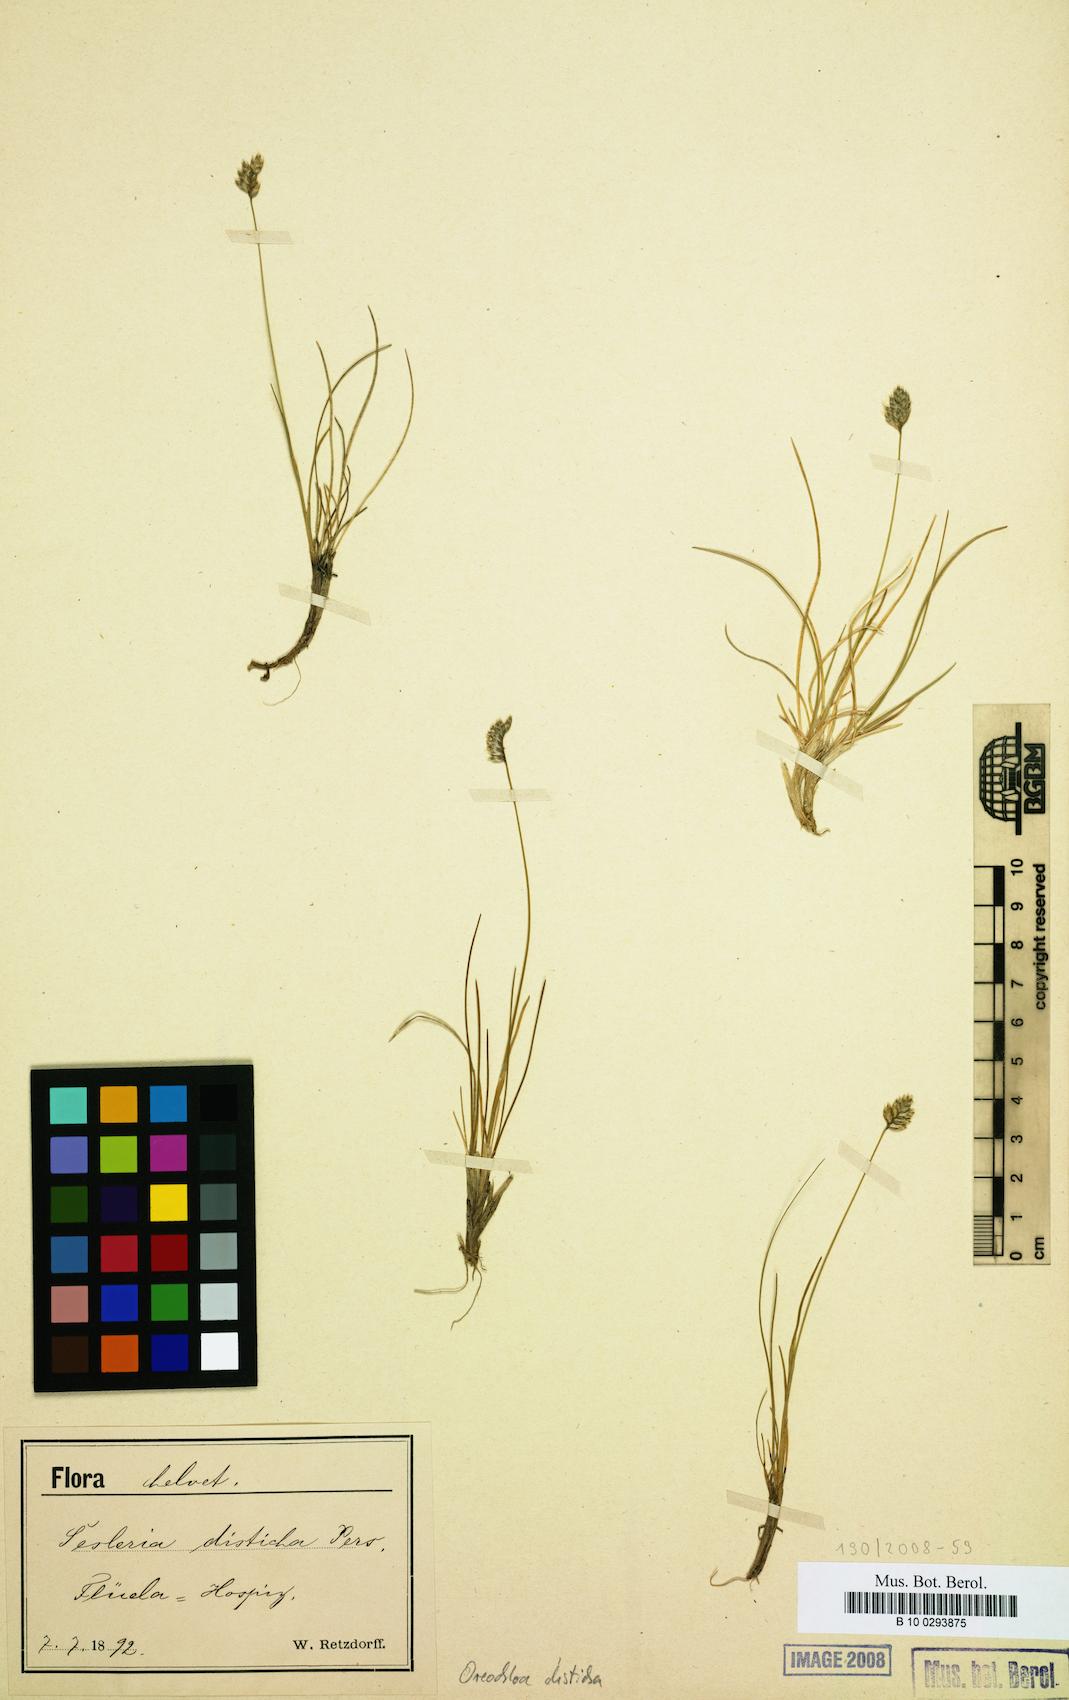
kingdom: Plantae
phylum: Tracheophyta
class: Liliopsida
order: Poales
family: Poaceae
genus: Oreochloa
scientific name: Oreochloa disticha
